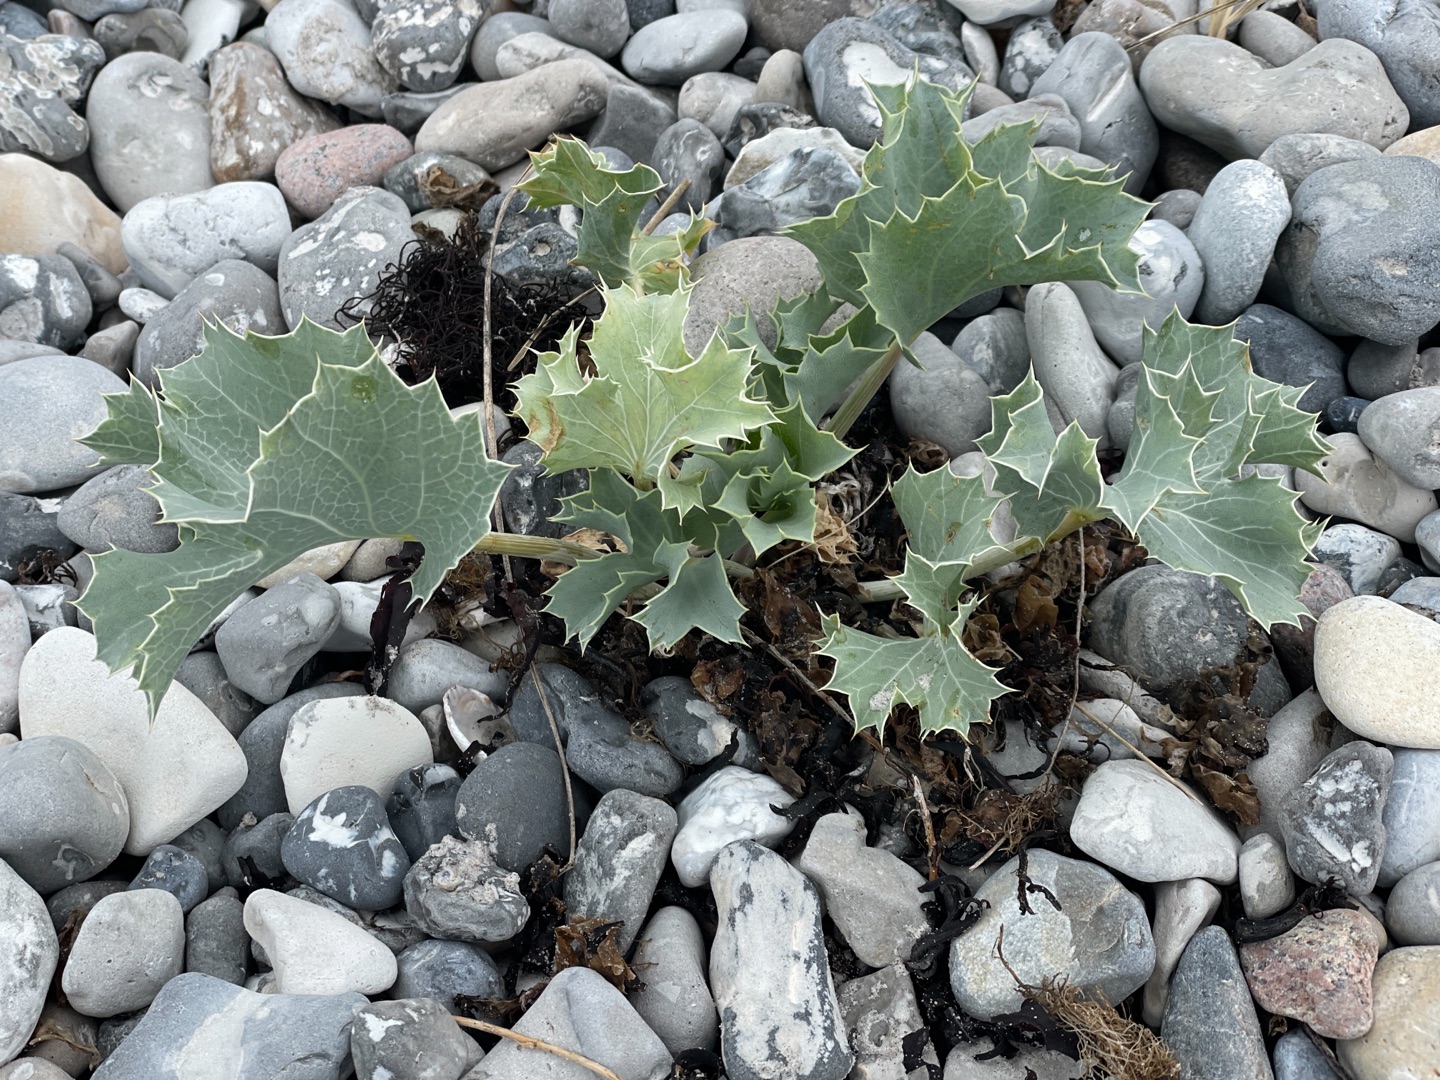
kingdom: Plantae
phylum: Tracheophyta
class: Magnoliopsida
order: Apiales
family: Apiaceae
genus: Eryngium
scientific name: Eryngium maritimum
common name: Strand-mandstro
